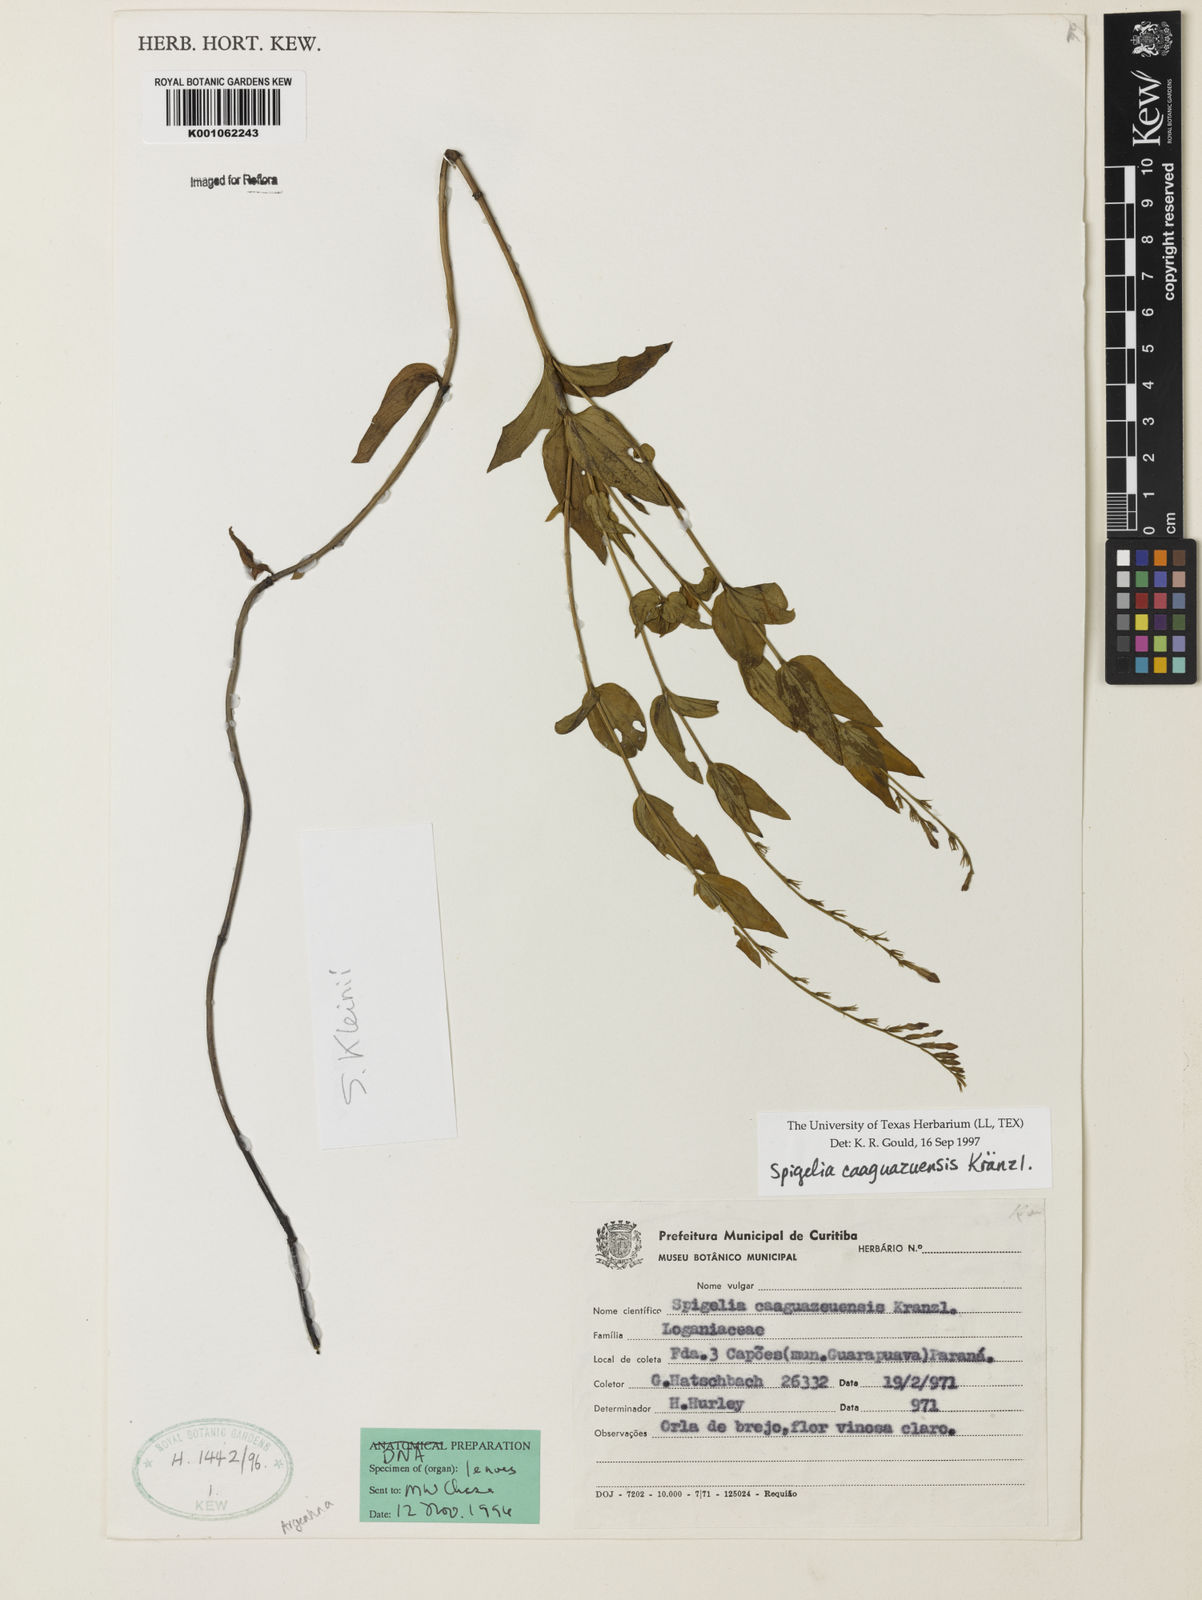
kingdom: Plantae
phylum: Tracheophyta
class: Magnoliopsida
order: Gentianales
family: Loganiaceae
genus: Spigelia
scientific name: Spigelia caaguazuensis
